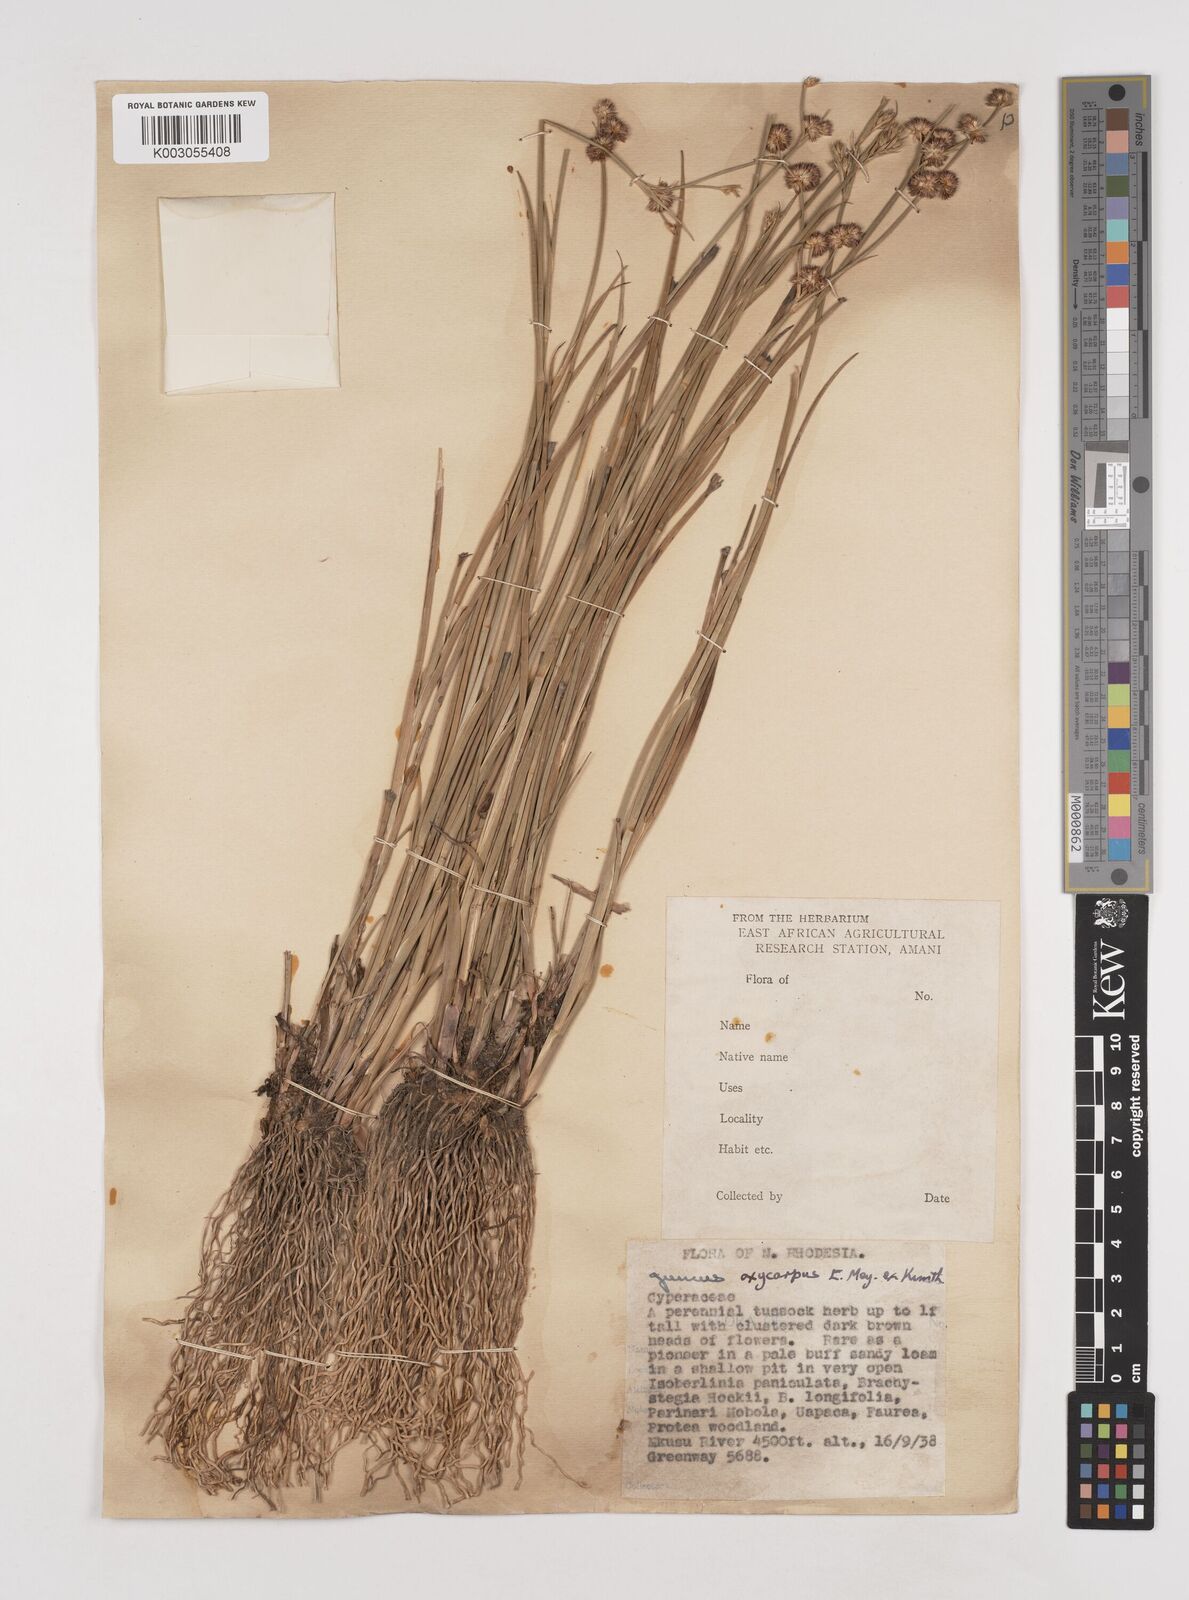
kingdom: Plantae
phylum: Tracheophyta
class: Liliopsida
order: Poales
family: Juncaceae
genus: Juncus
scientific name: Juncus oxycarpus
